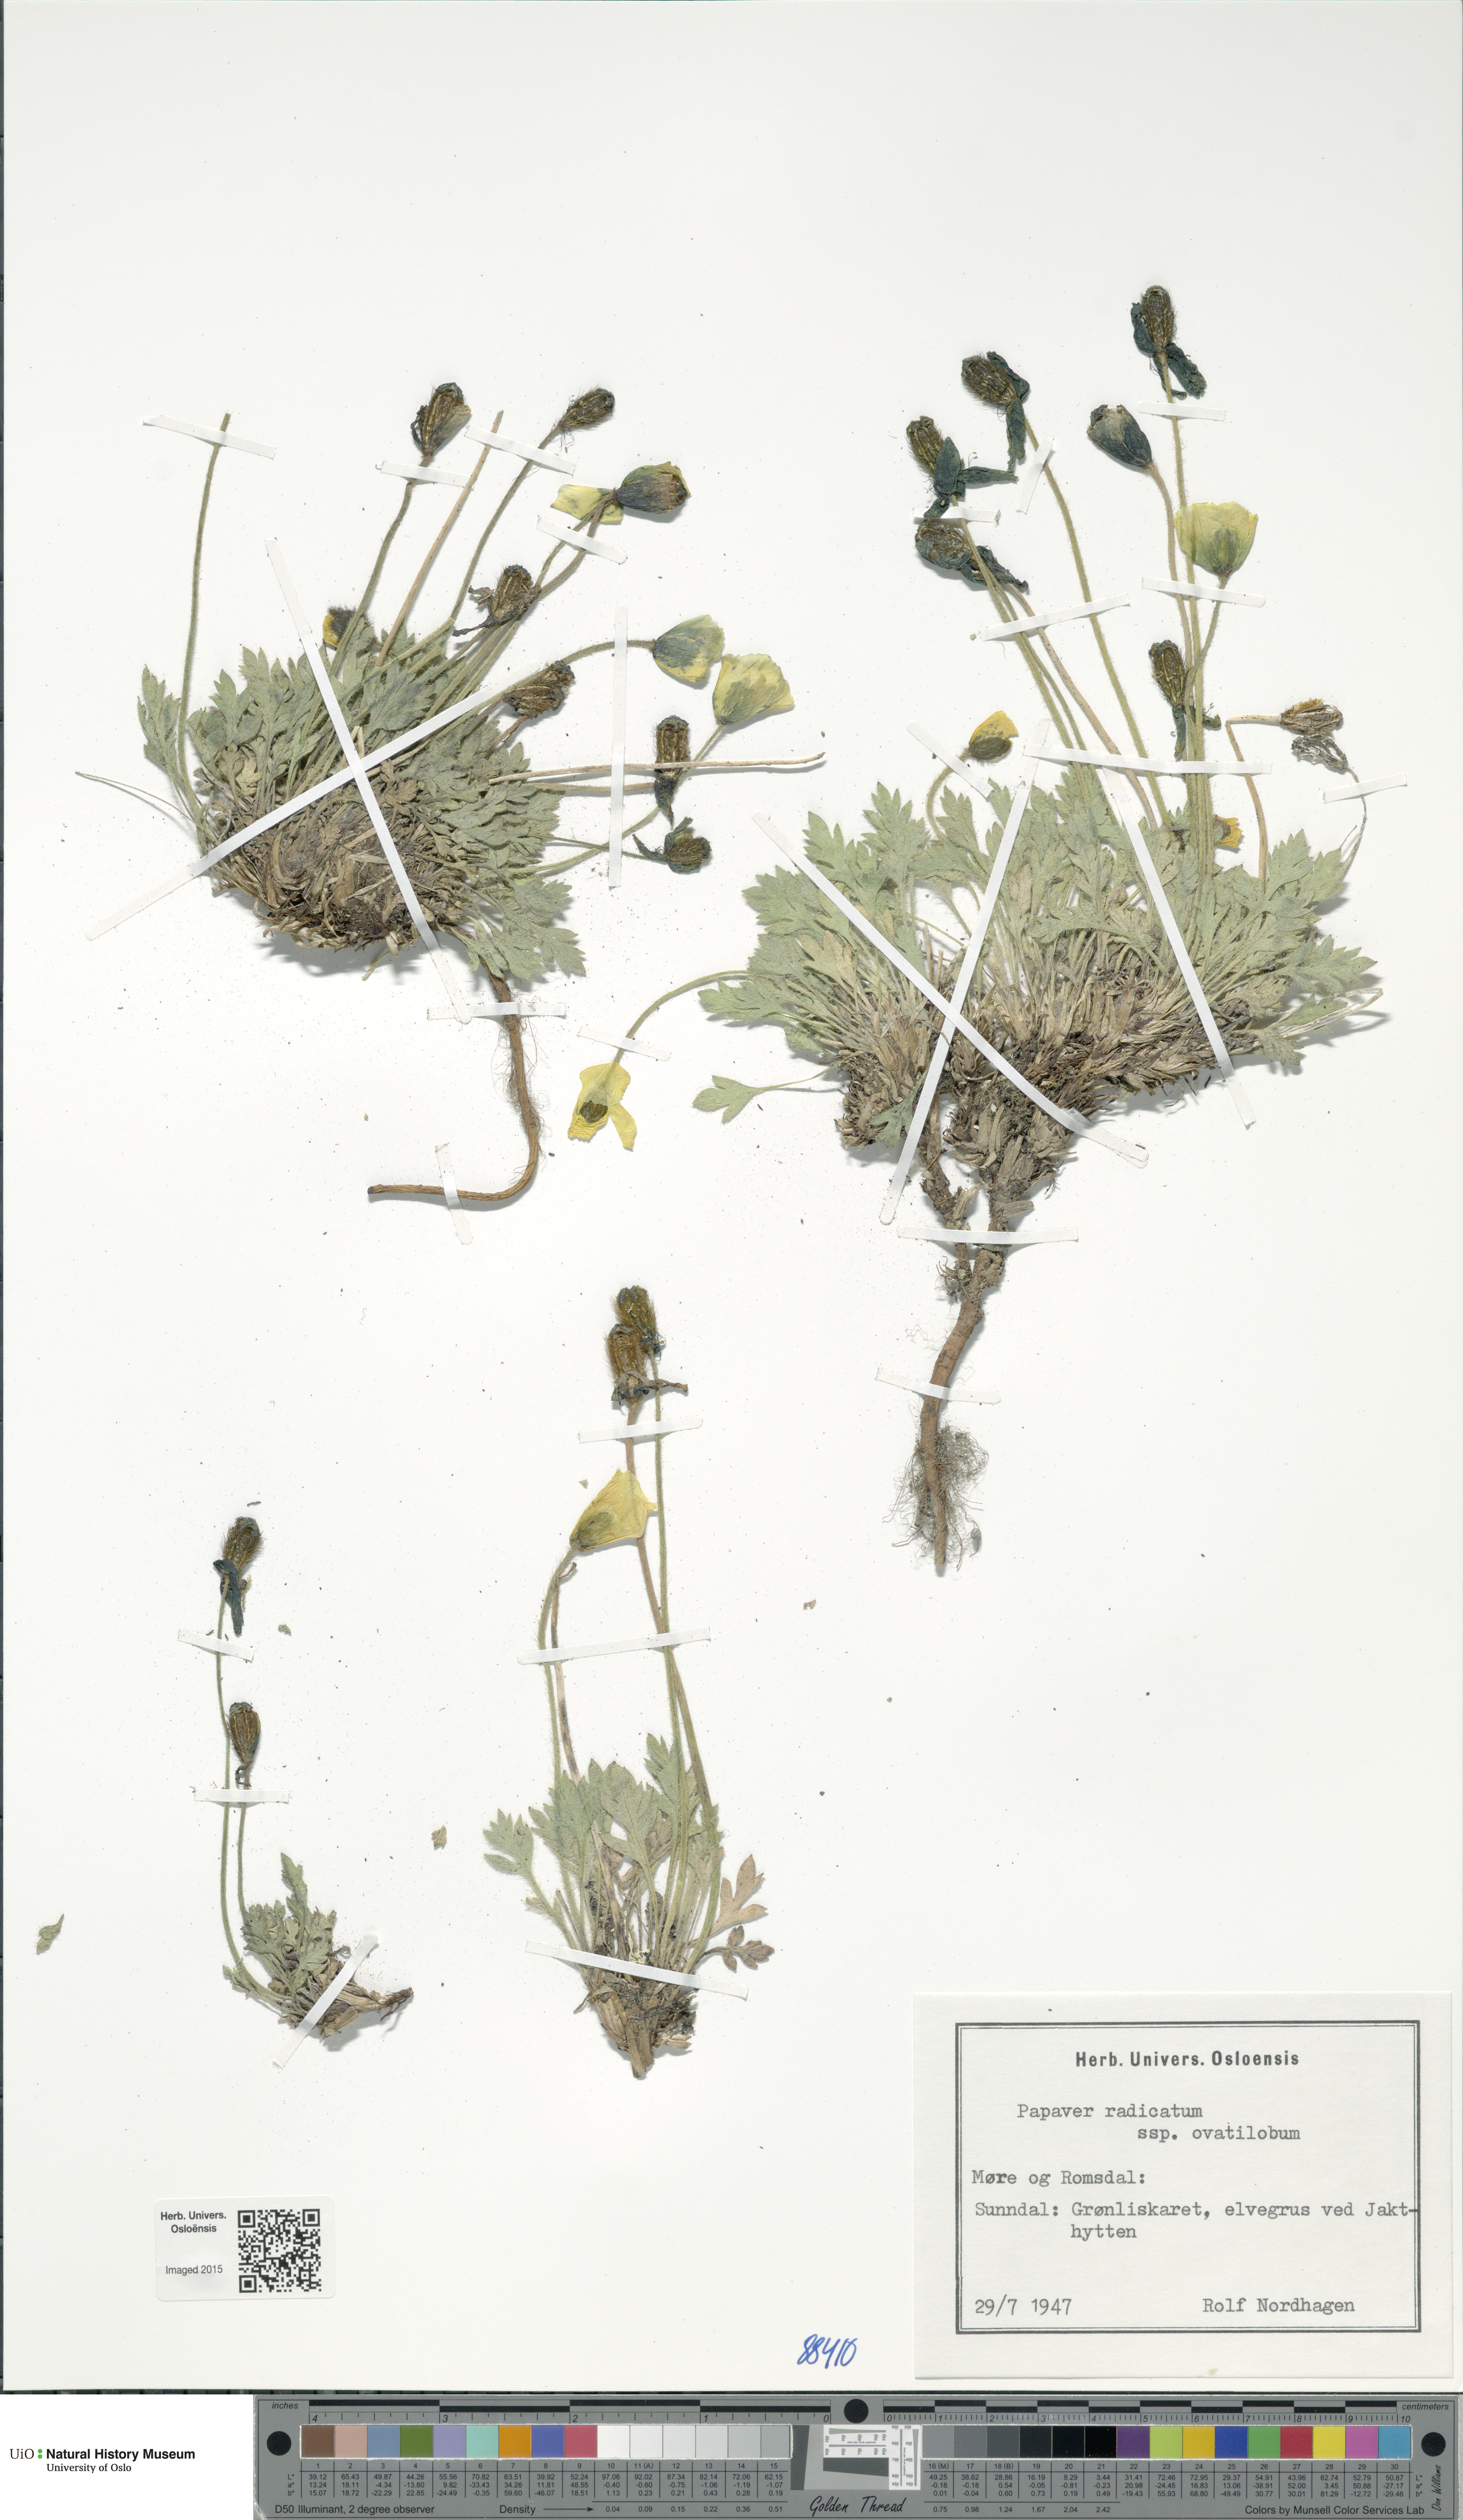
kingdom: Plantae
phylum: Tracheophyta
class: Magnoliopsida
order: Ranunculales
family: Papaveraceae
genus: Papaver
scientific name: Papaver radicatum
